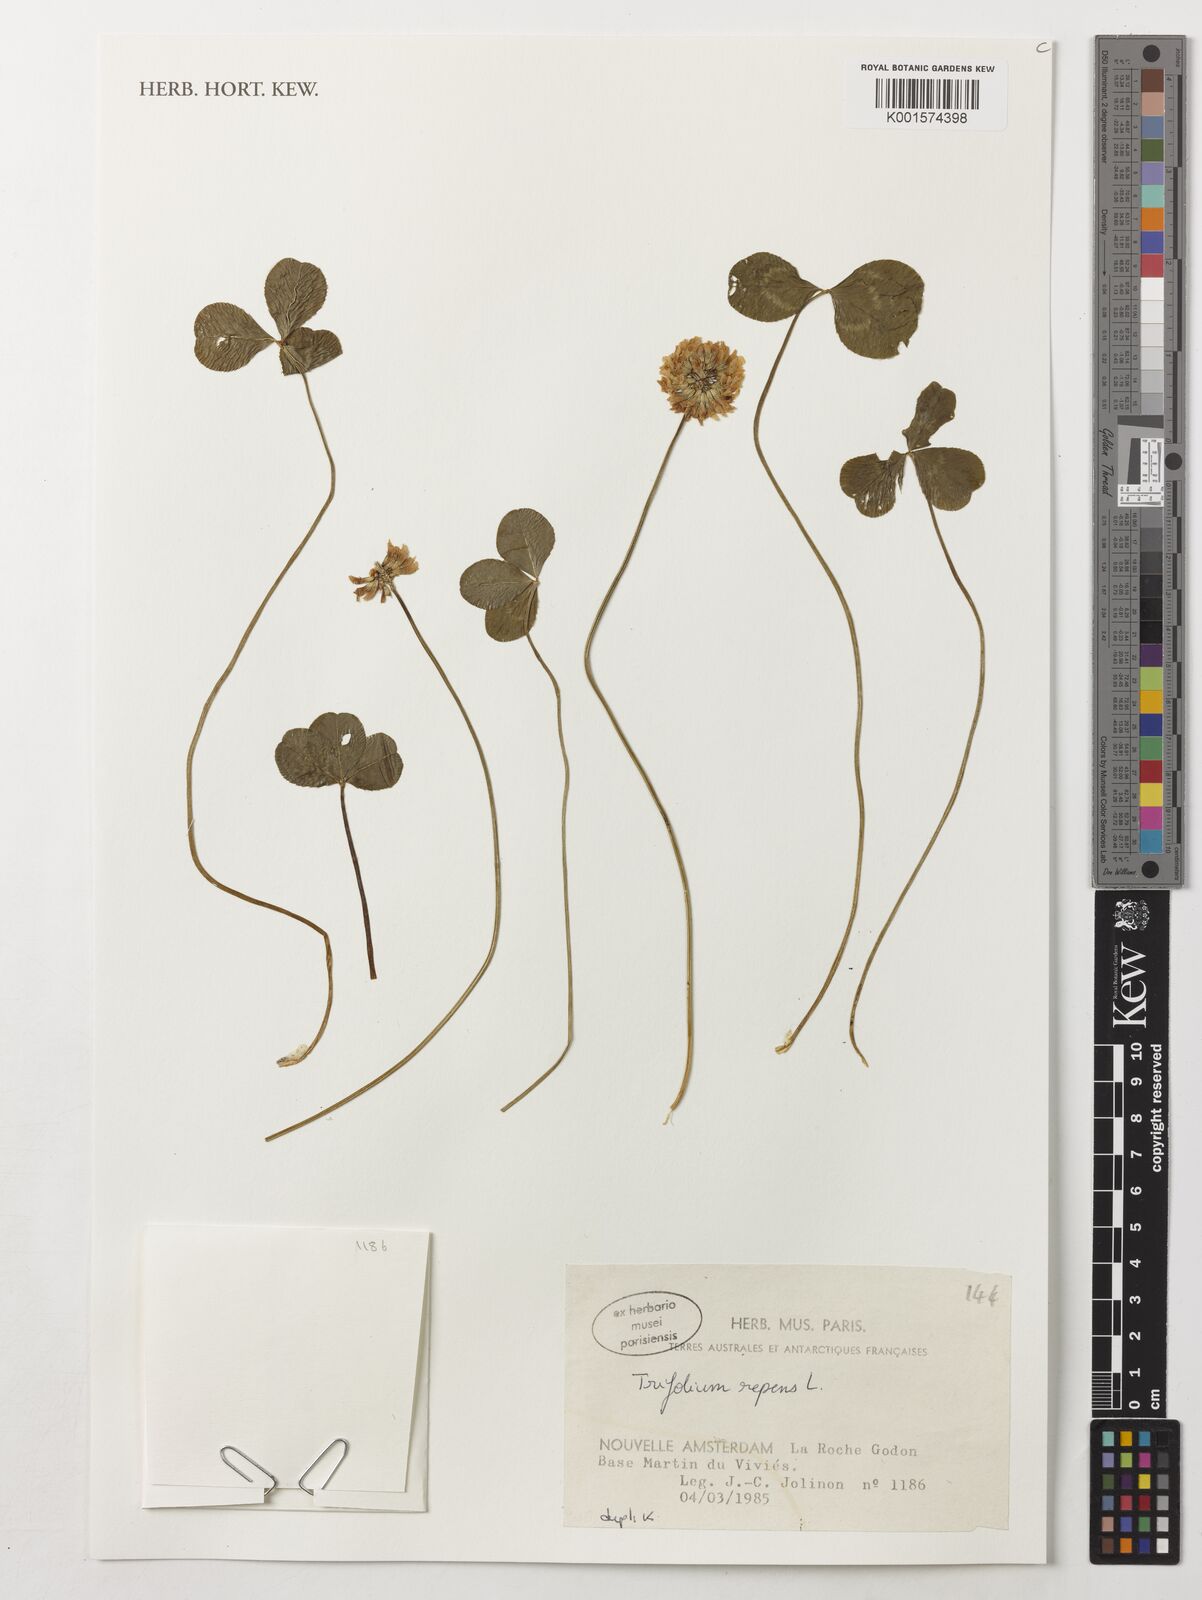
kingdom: Plantae
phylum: Tracheophyta
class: Magnoliopsida
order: Fabales
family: Fabaceae
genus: Trifolium
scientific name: Trifolium repens
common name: White clover
